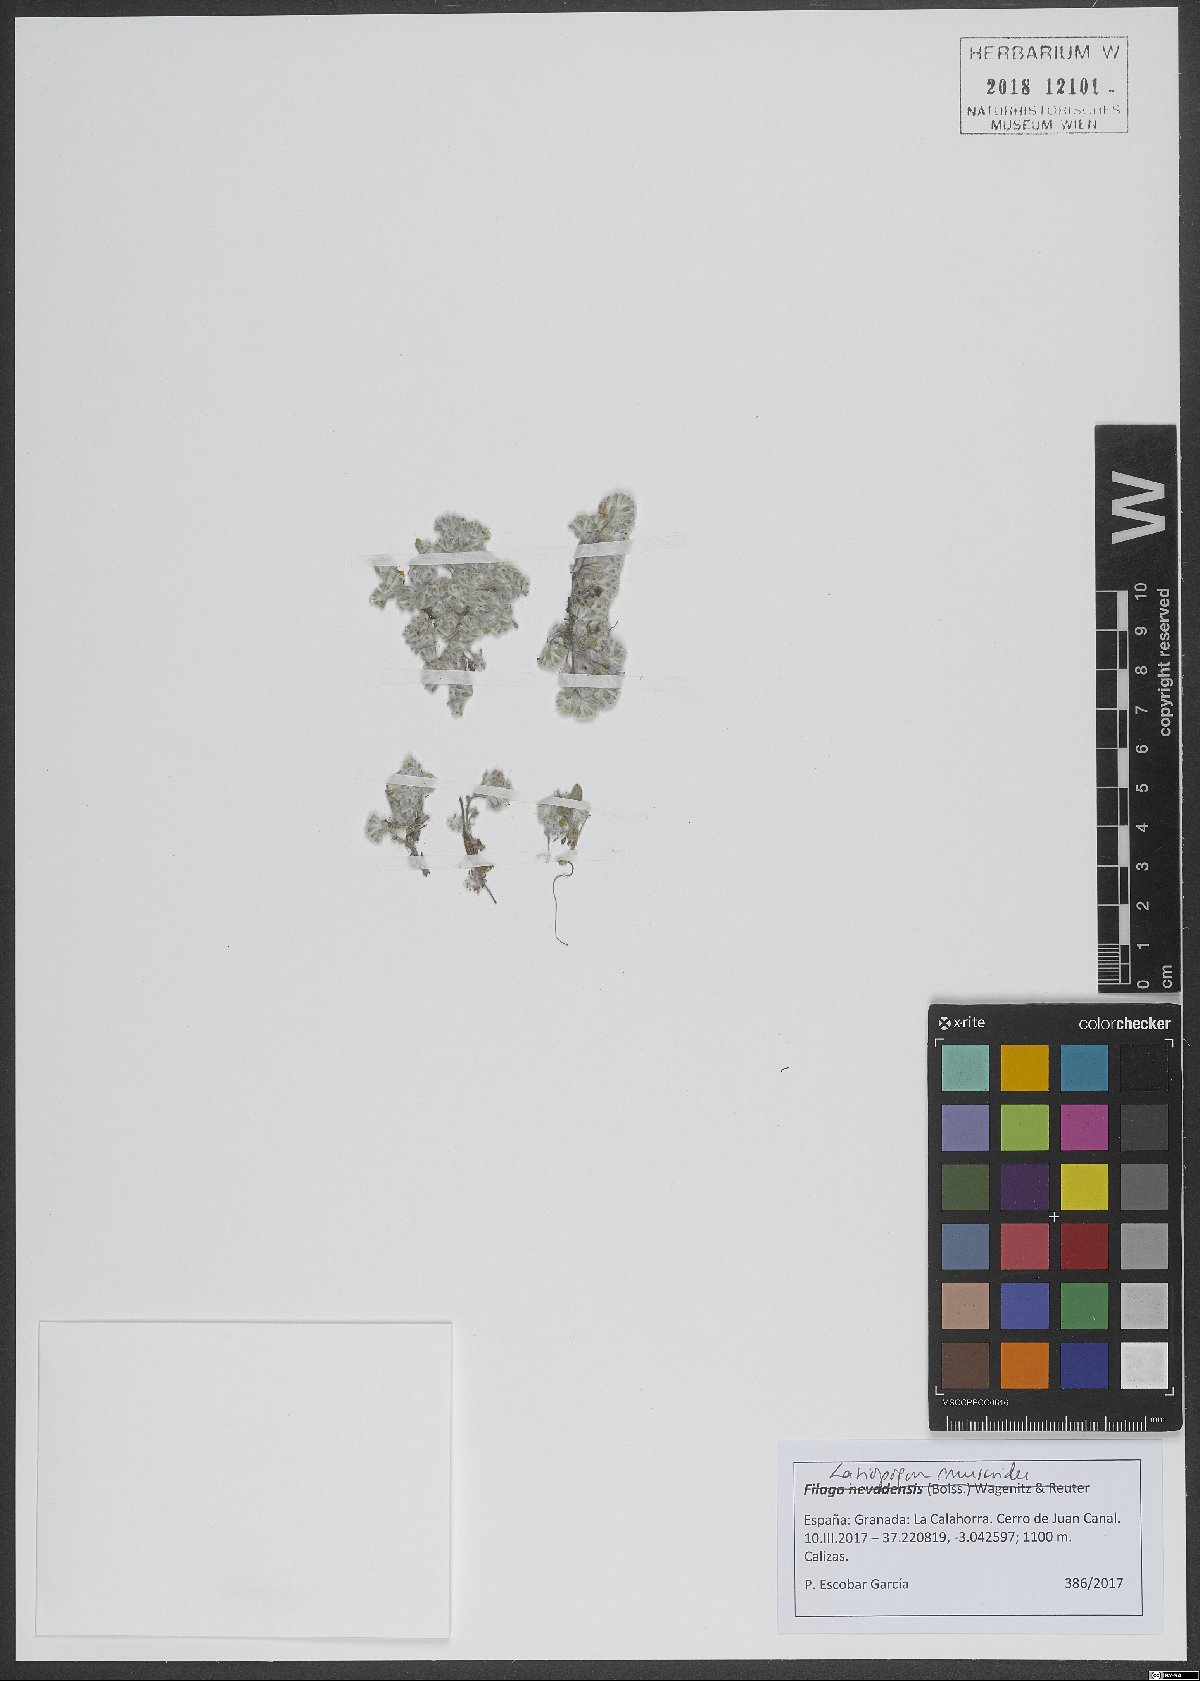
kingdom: Plantae
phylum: Tracheophyta
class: Magnoliopsida
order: Asterales
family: Asteraceae
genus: Lasiopogon
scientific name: Lasiopogon muscoides
